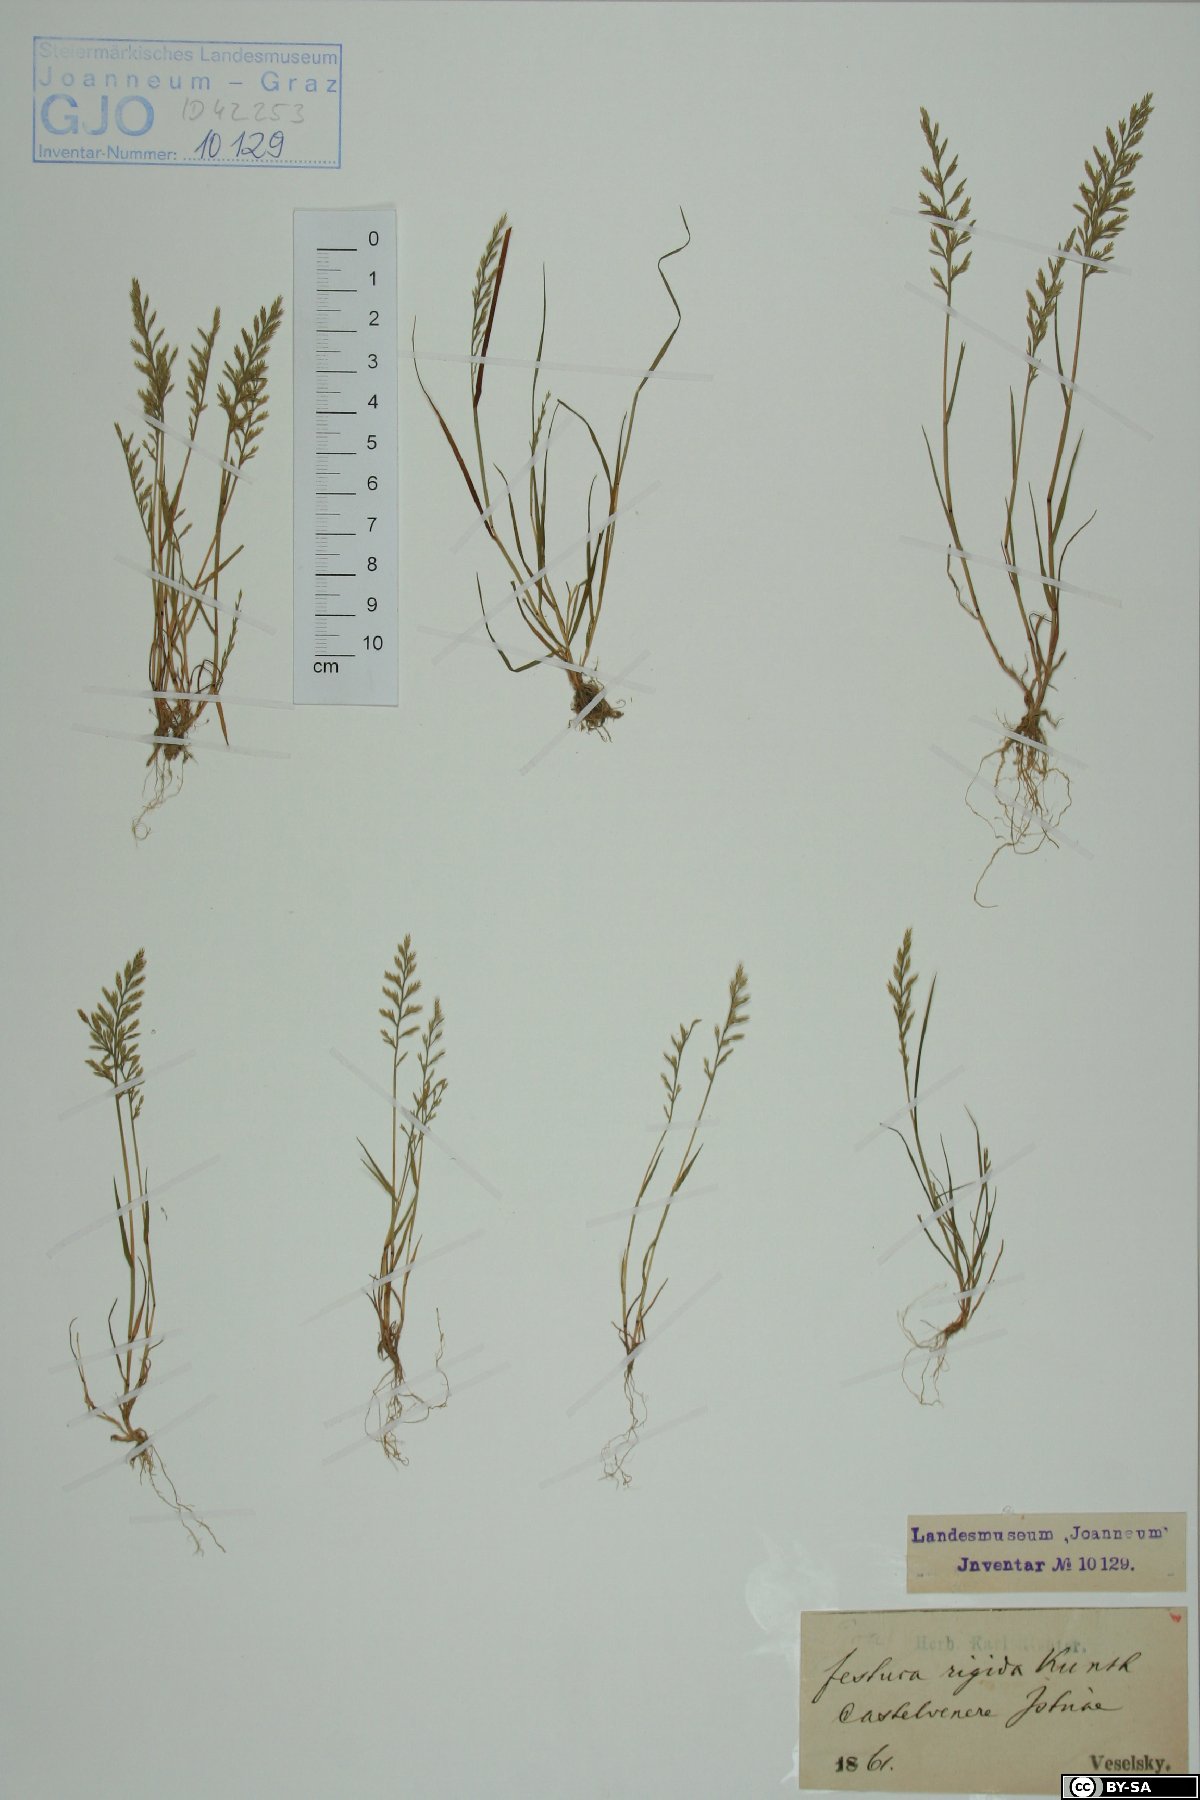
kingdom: Plantae
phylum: Tracheophyta
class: Liliopsida
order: Poales
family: Poaceae
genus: Catapodium
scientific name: Catapodium rigidum
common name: Fern-grass
